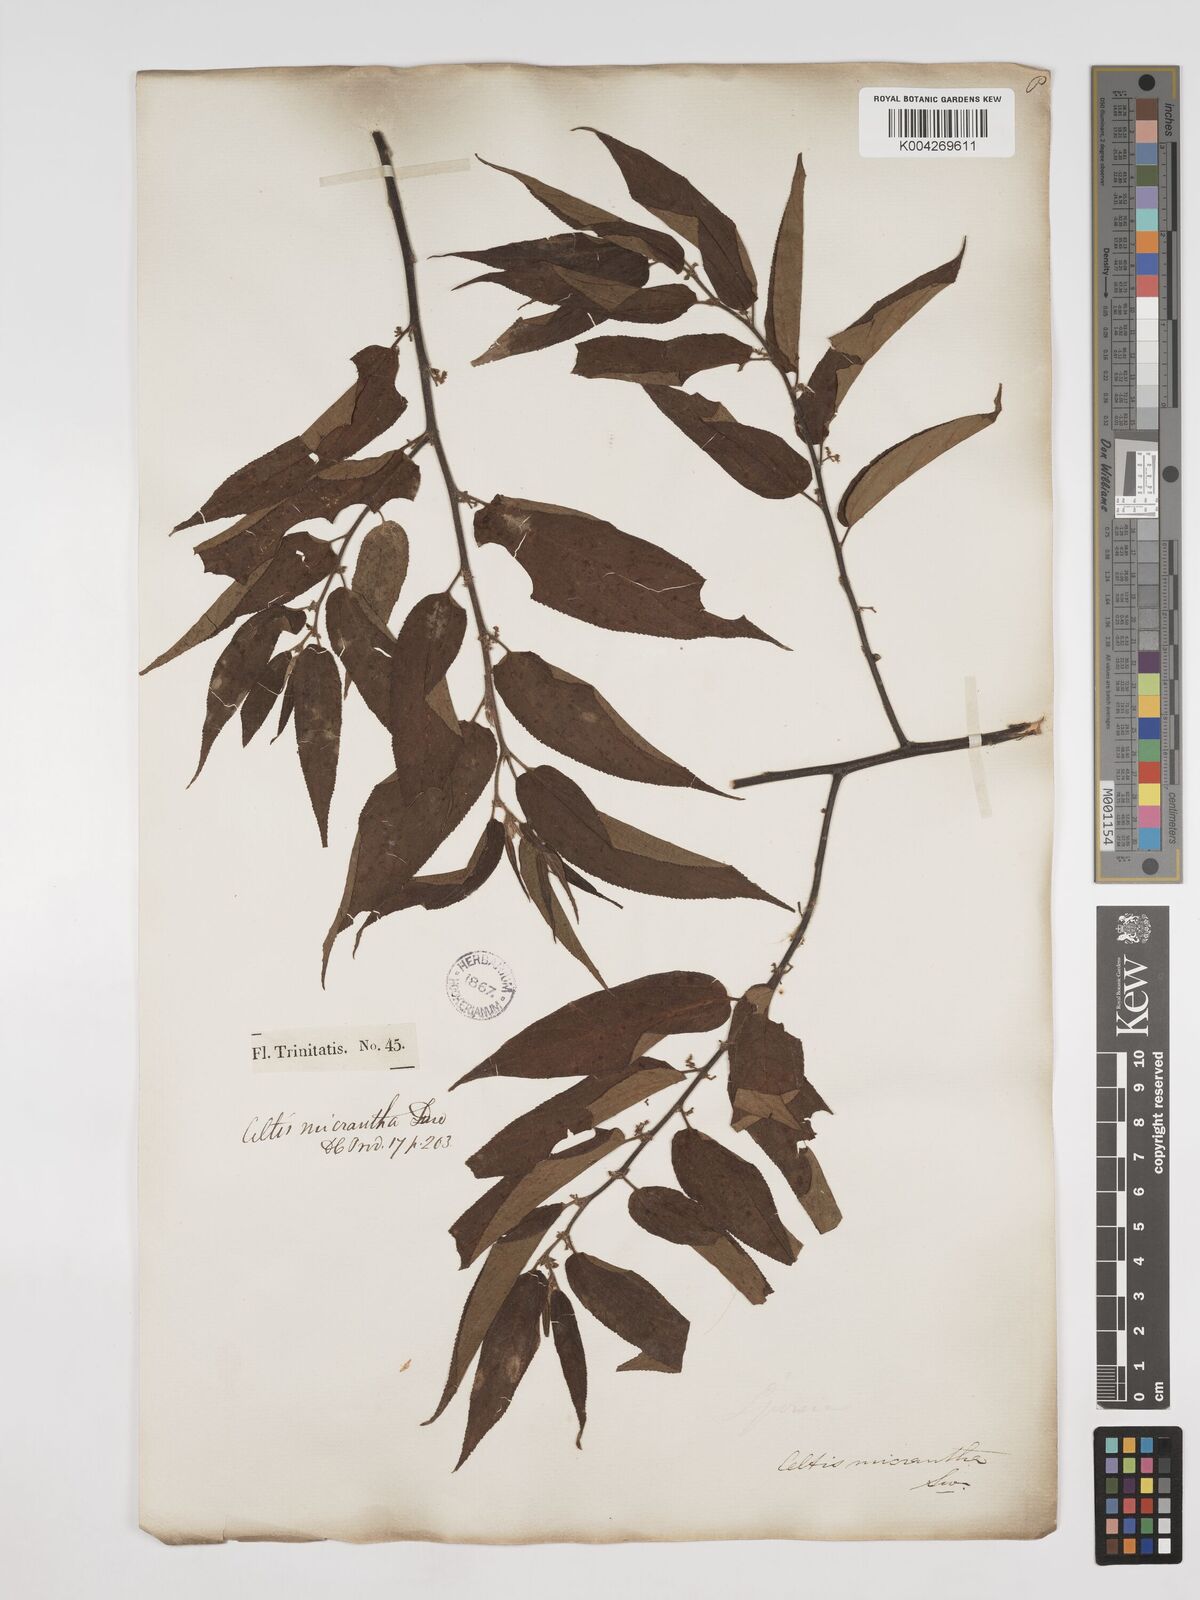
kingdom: Plantae
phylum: Tracheophyta
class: Magnoliopsida
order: Rosales
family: Cannabaceae
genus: Trema
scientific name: Trema micranthum
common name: Jamaican nettletree
